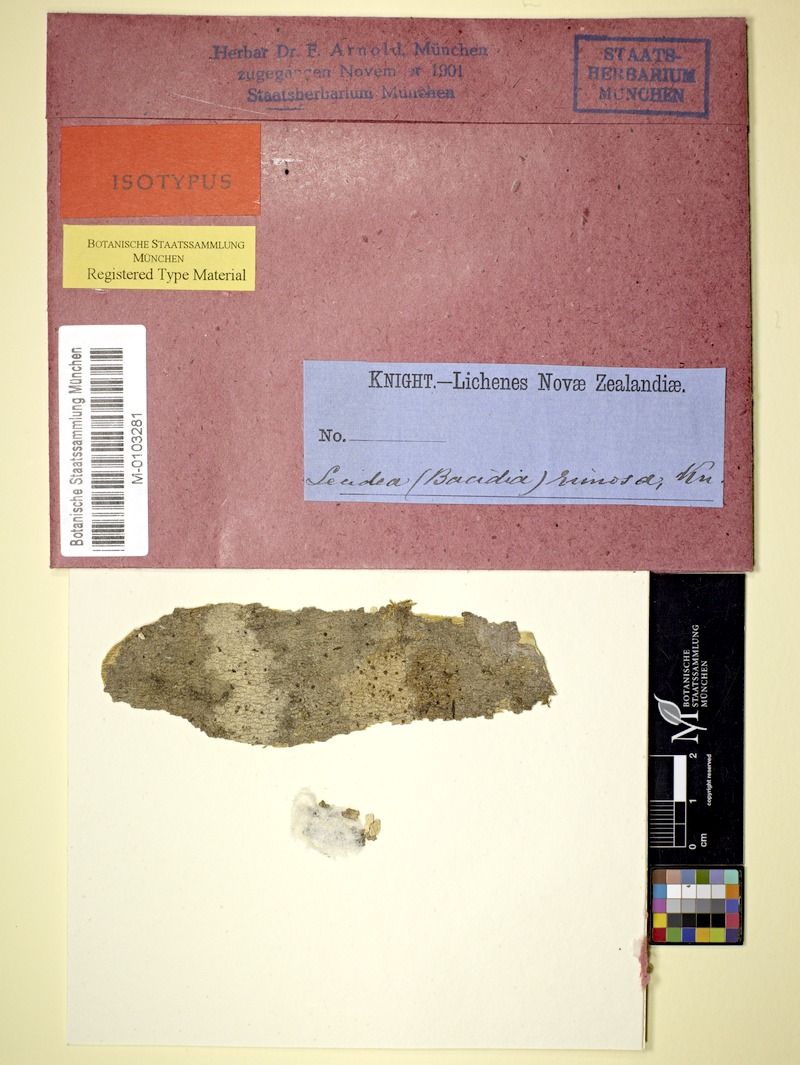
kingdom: Fungi
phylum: Ascomycota
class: Lecanoromycetes
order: Lecanorales
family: Ramalinaceae
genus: Bacidia
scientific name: Bacidia laurocerasi
